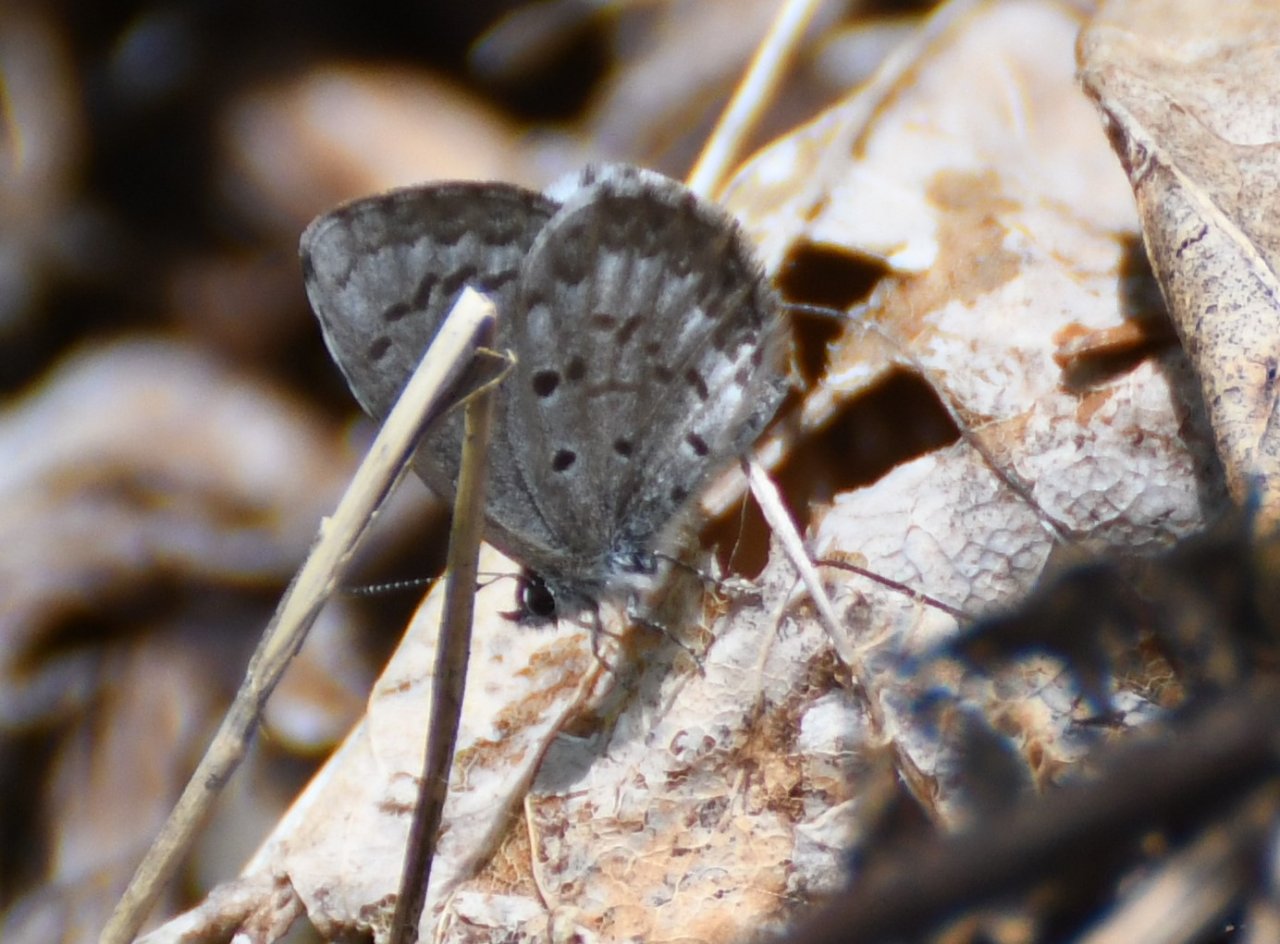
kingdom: Animalia
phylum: Arthropoda
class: Insecta
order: Lepidoptera
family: Lycaenidae
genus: Celastrina
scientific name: Celastrina lucia
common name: Northern Spring Azure
